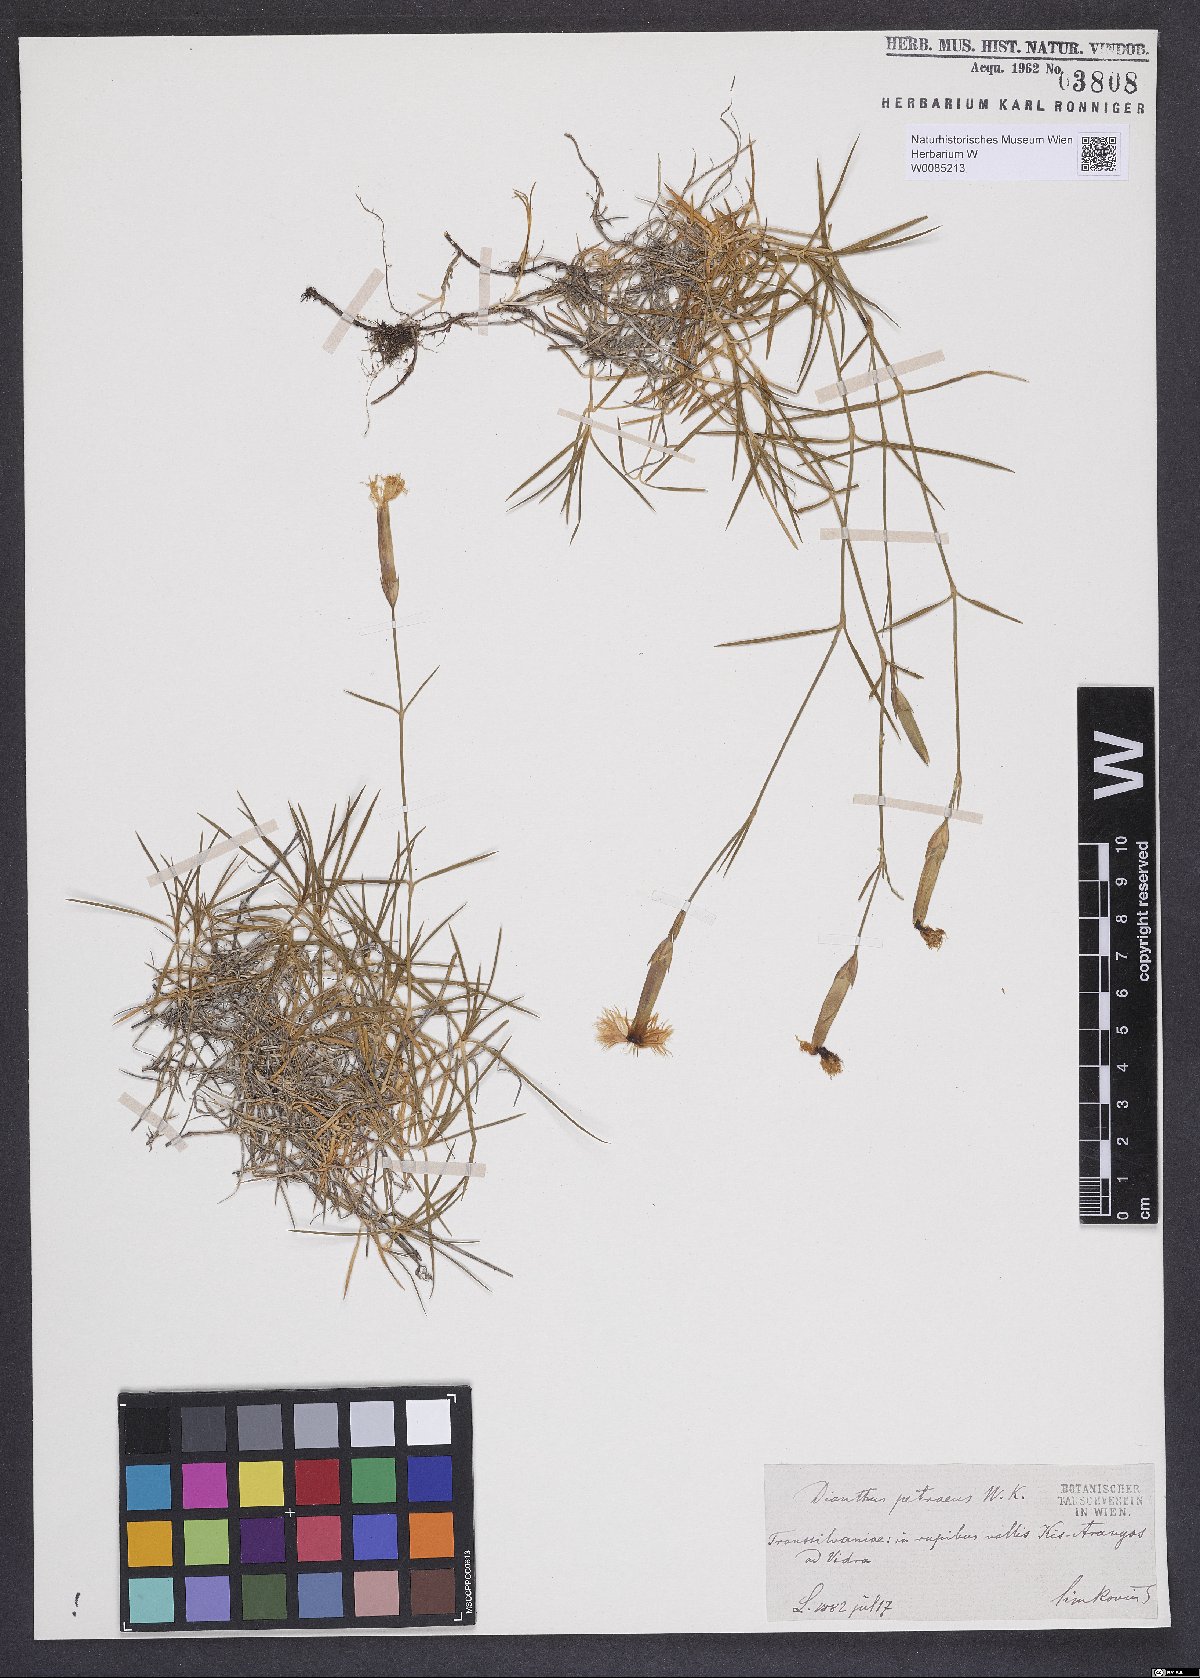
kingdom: Plantae
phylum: Tracheophyta
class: Magnoliopsida
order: Caryophyllales
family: Caryophyllaceae
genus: Dianthus
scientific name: Dianthus petraeus
